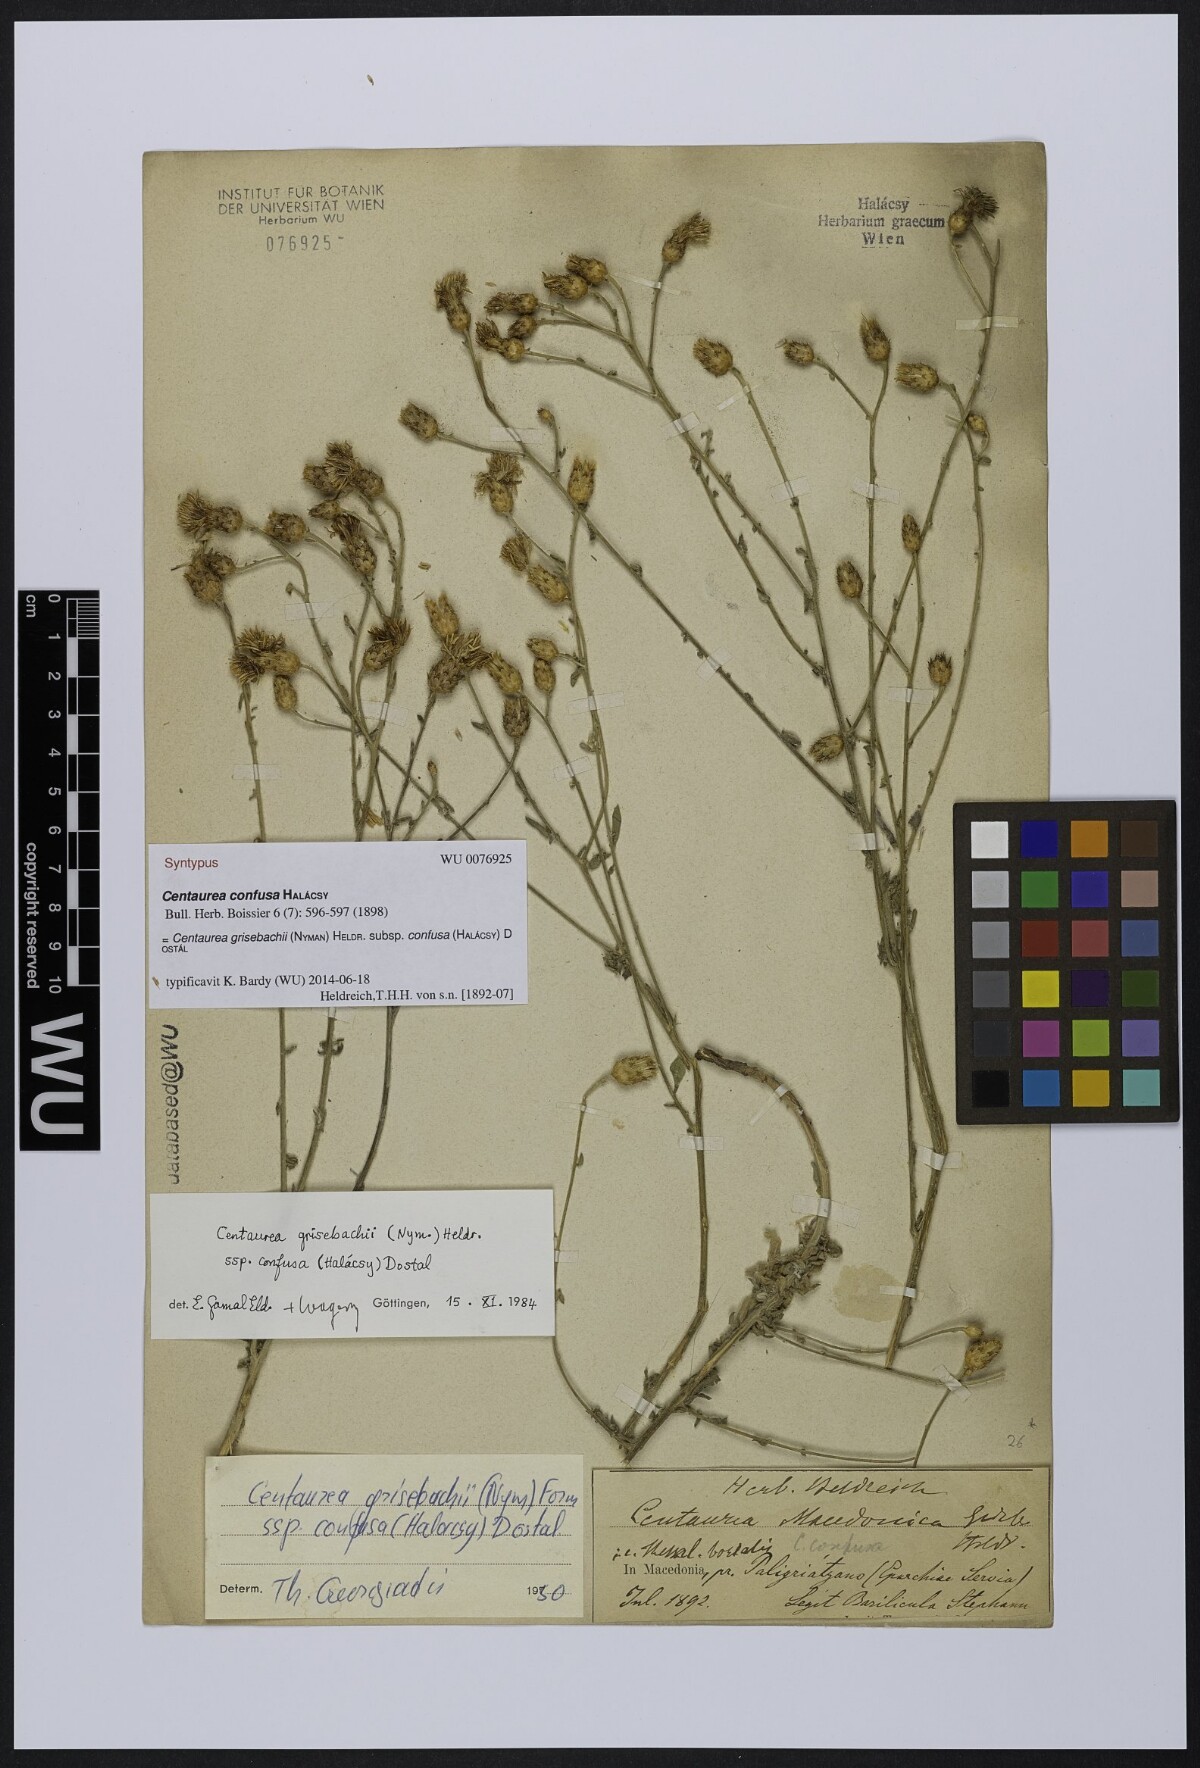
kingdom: Plantae
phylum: Tracheophyta
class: Magnoliopsida
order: Asterales
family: Asteraceae
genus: Centaurea
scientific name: Centaurea grisebachii
